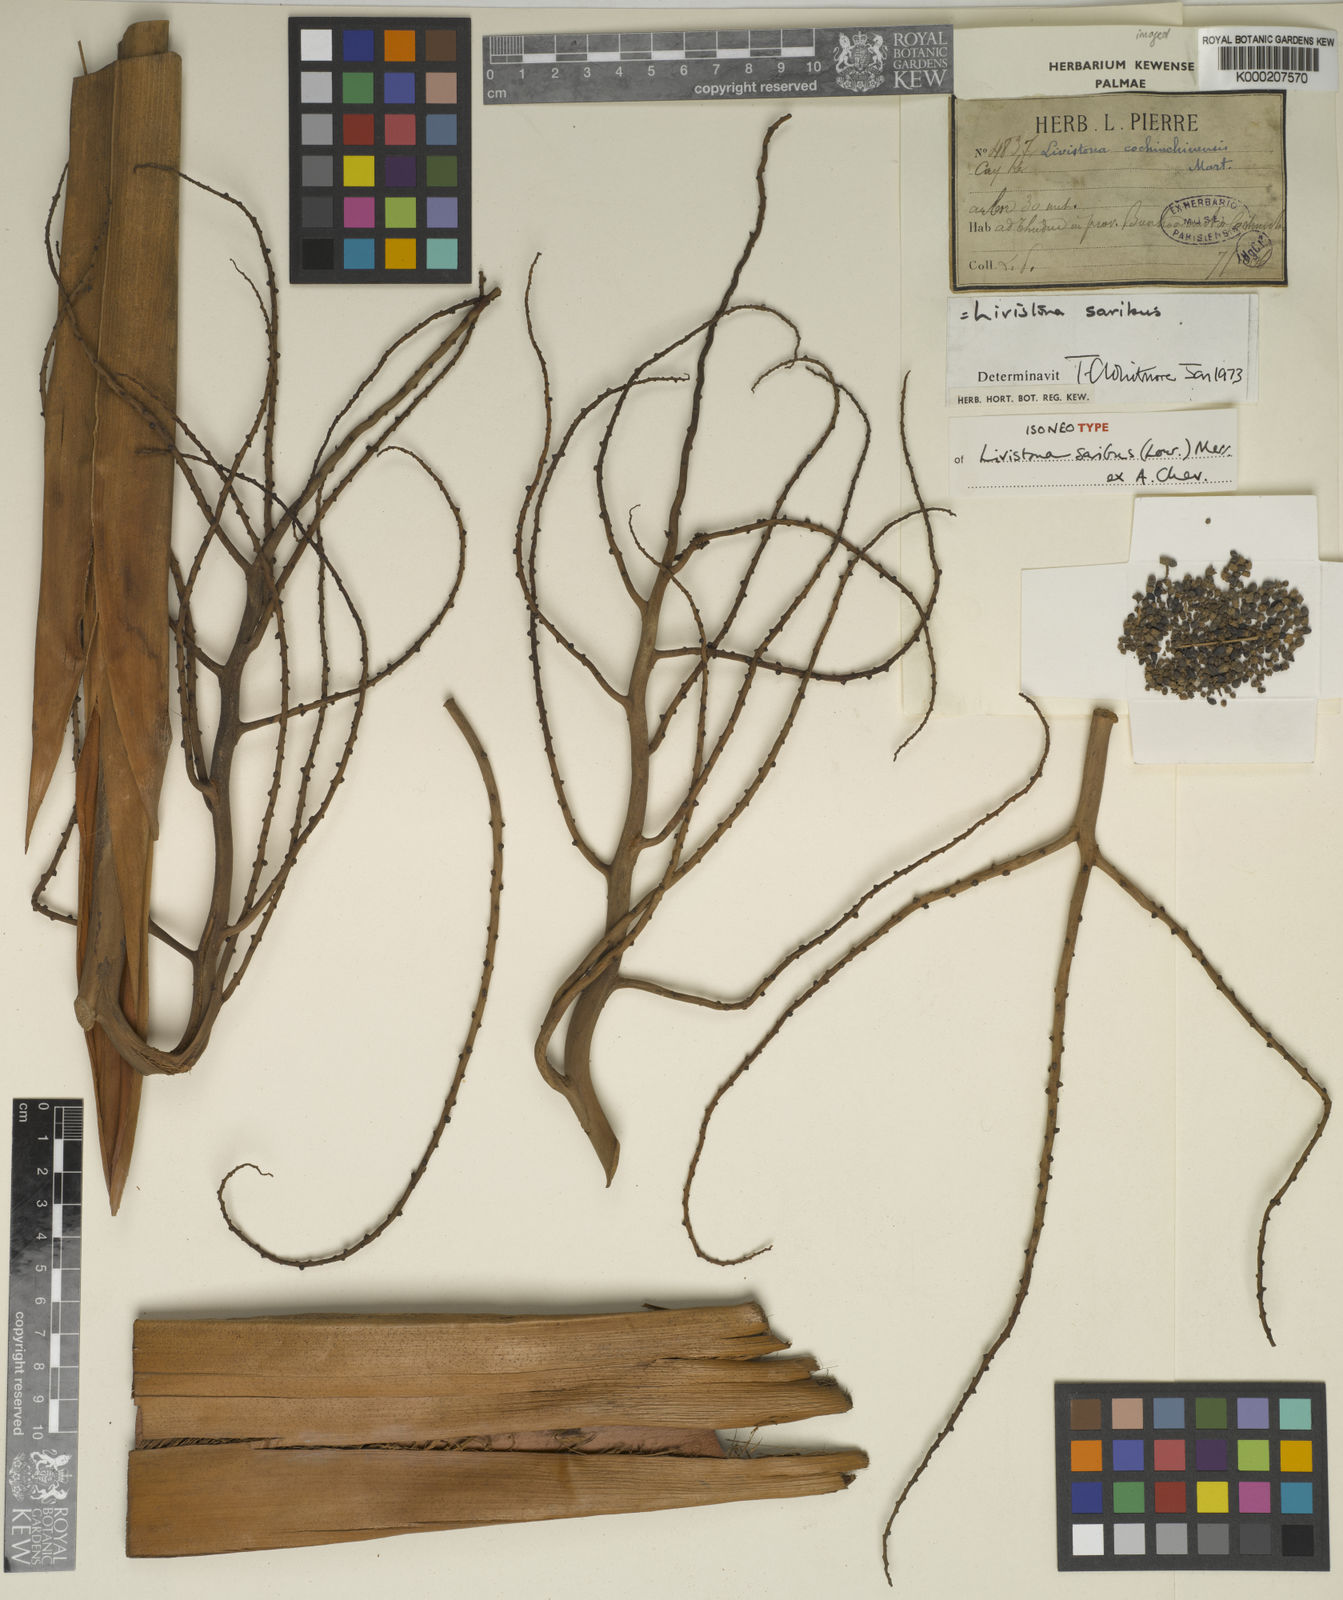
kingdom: Plantae
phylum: Tracheophyta
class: Liliopsida
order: Arecales
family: Arecaceae
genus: Livistona
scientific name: Livistona saribus
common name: Taraw palm
